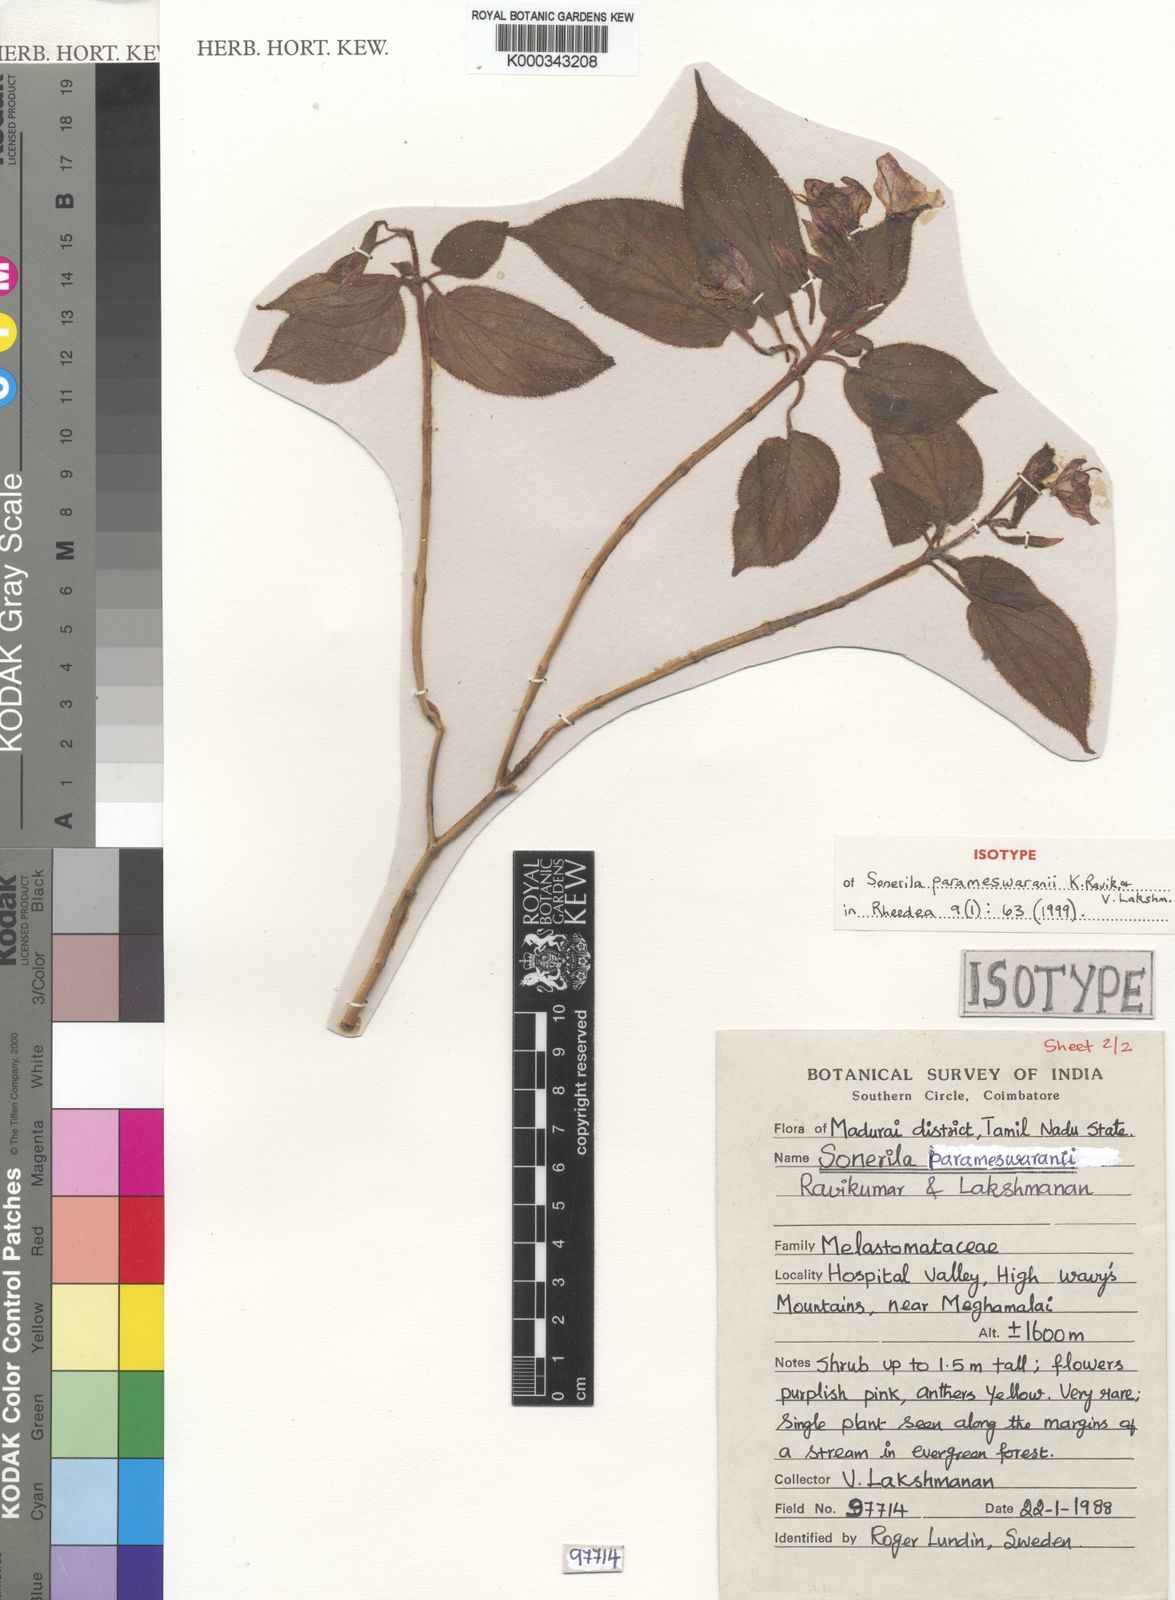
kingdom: Plantae
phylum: Tracheophyta
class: Magnoliopsida
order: Myrtales
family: Melastomataceae
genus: Sonerila
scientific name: Sonerila parameswaranii
